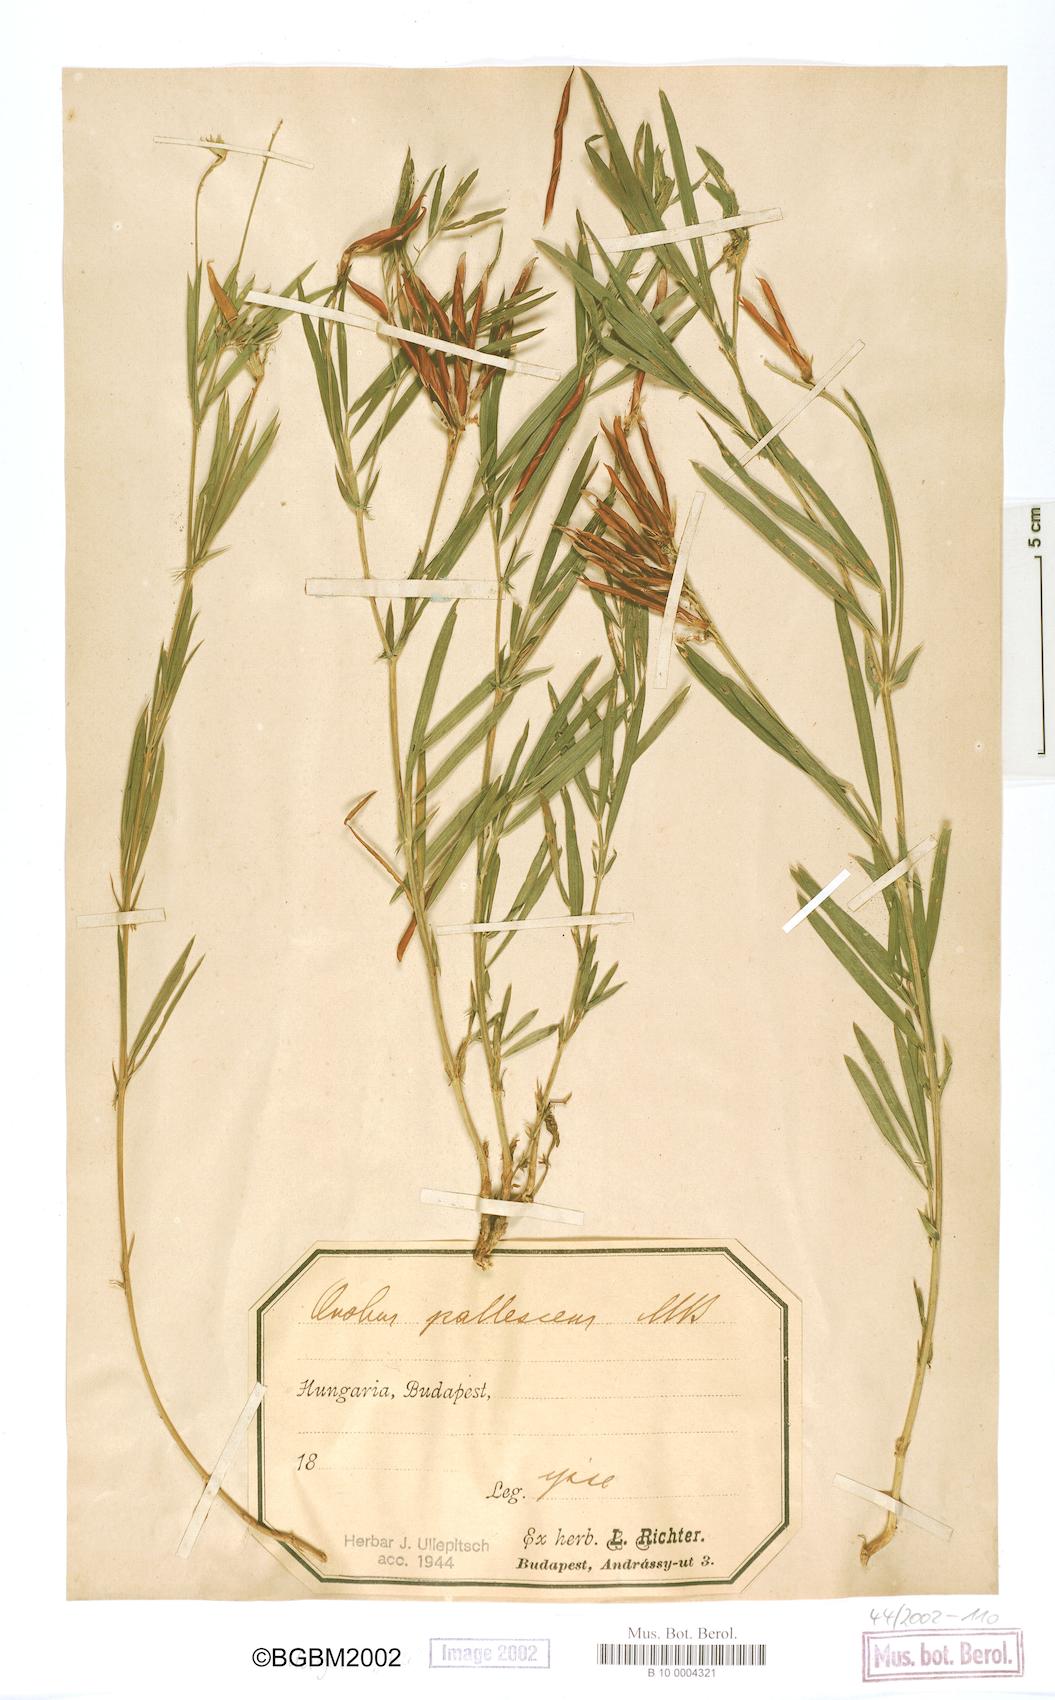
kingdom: Plantae
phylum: Tracheophyta
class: Magnoliopsida
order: Fabales
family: Fabaceae
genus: Lathyrus
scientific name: Lathyrus
